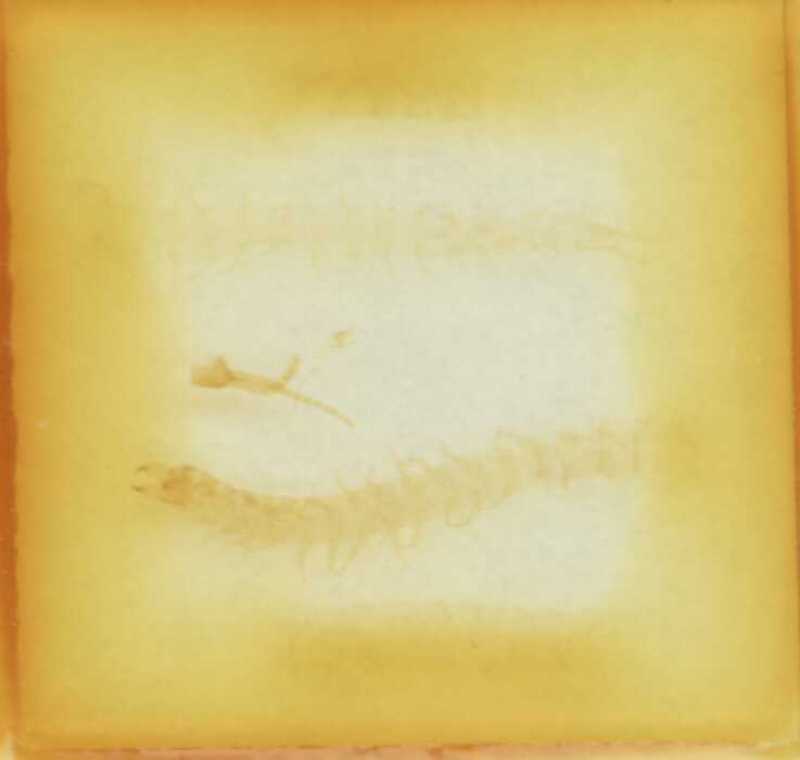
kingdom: Animalia
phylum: Arthropoda
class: Chilopoda
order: Geophilomorpha
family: Schendylidae
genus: Schendyla
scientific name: Schendyla vizzavonae
